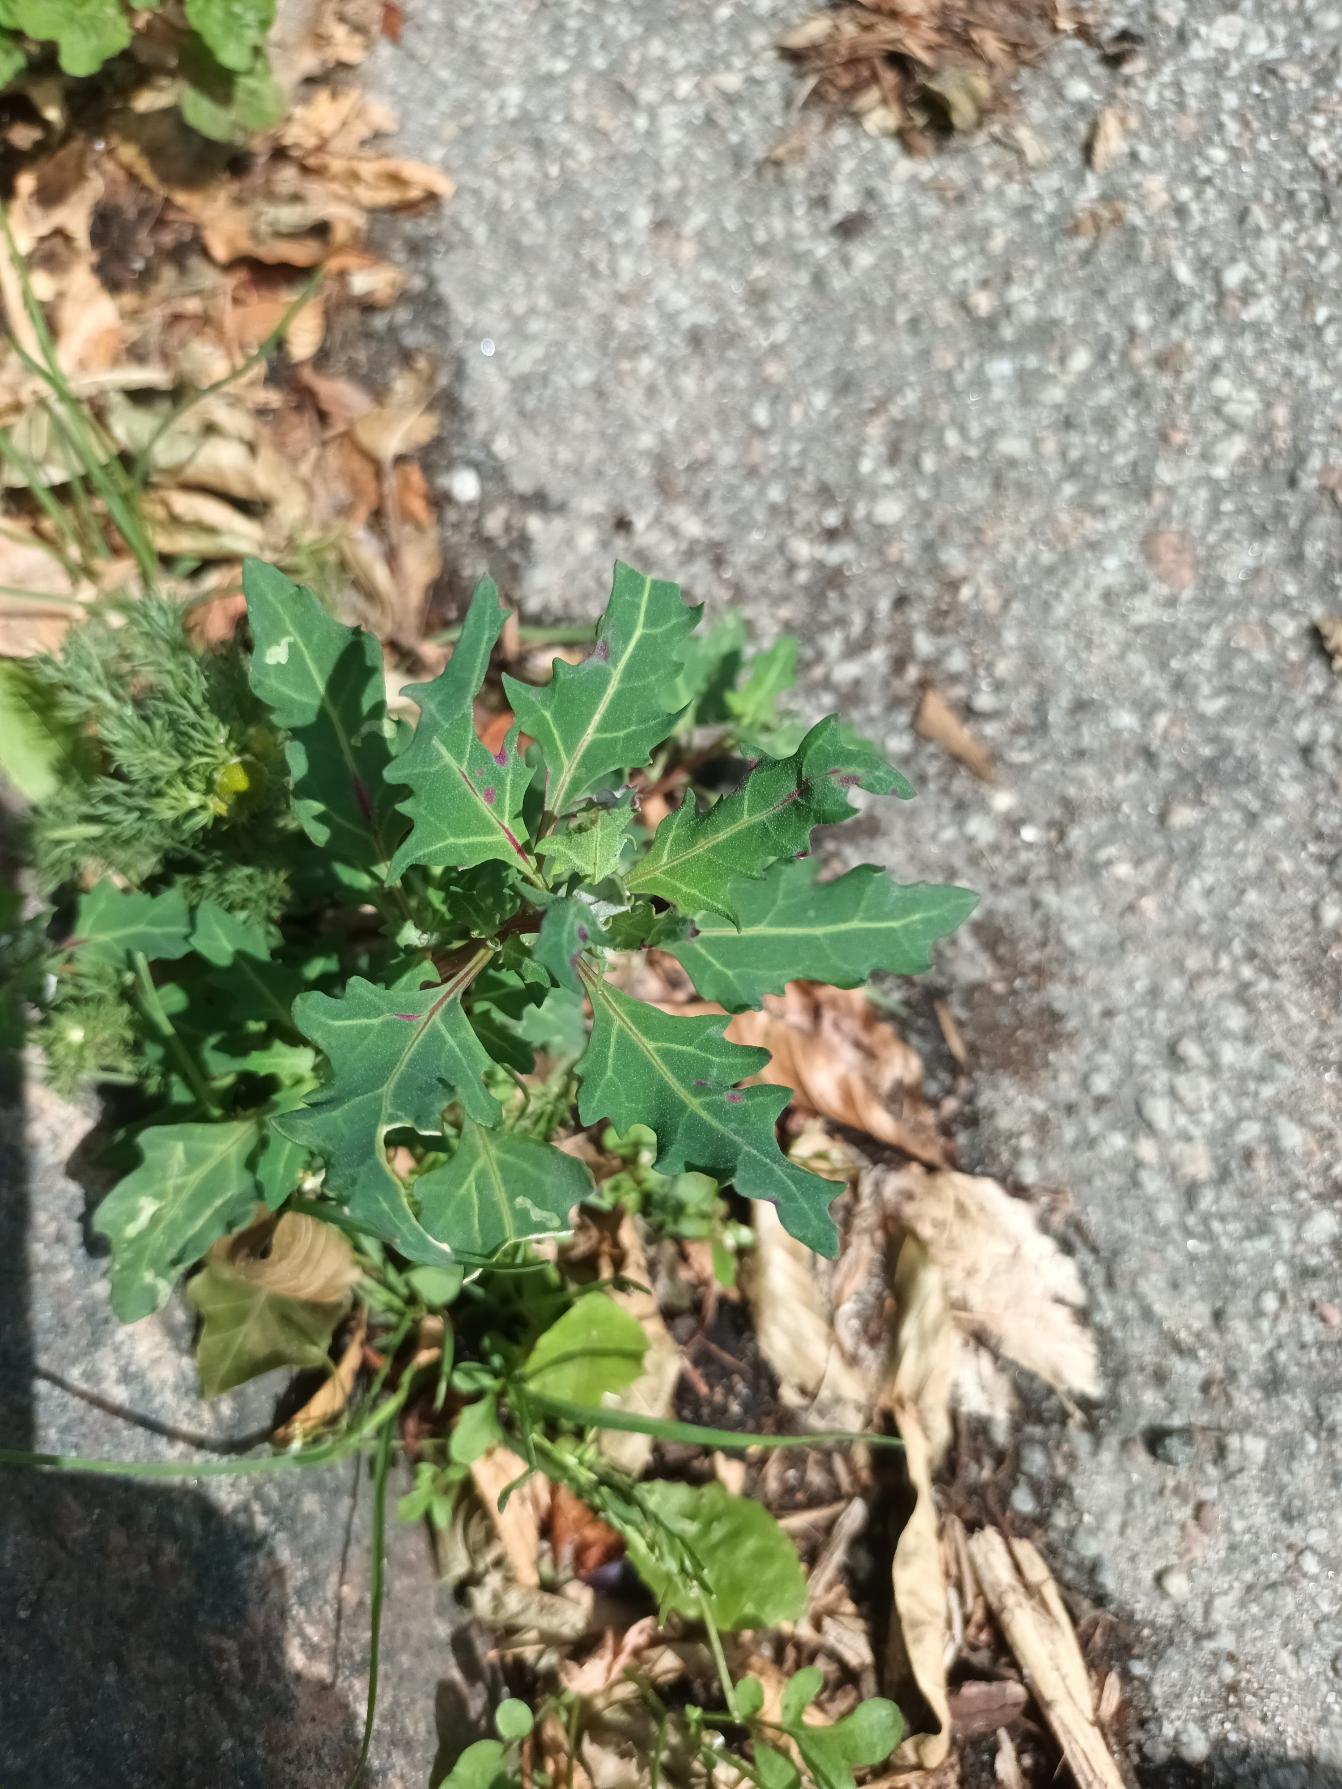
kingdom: Plantae
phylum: Tracheophyta
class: Magnoliopsida
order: Caryophyllales
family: Amaranthaceae
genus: Oxybasis
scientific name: Oxybasis glauca
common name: Blågrøn gåsefod
